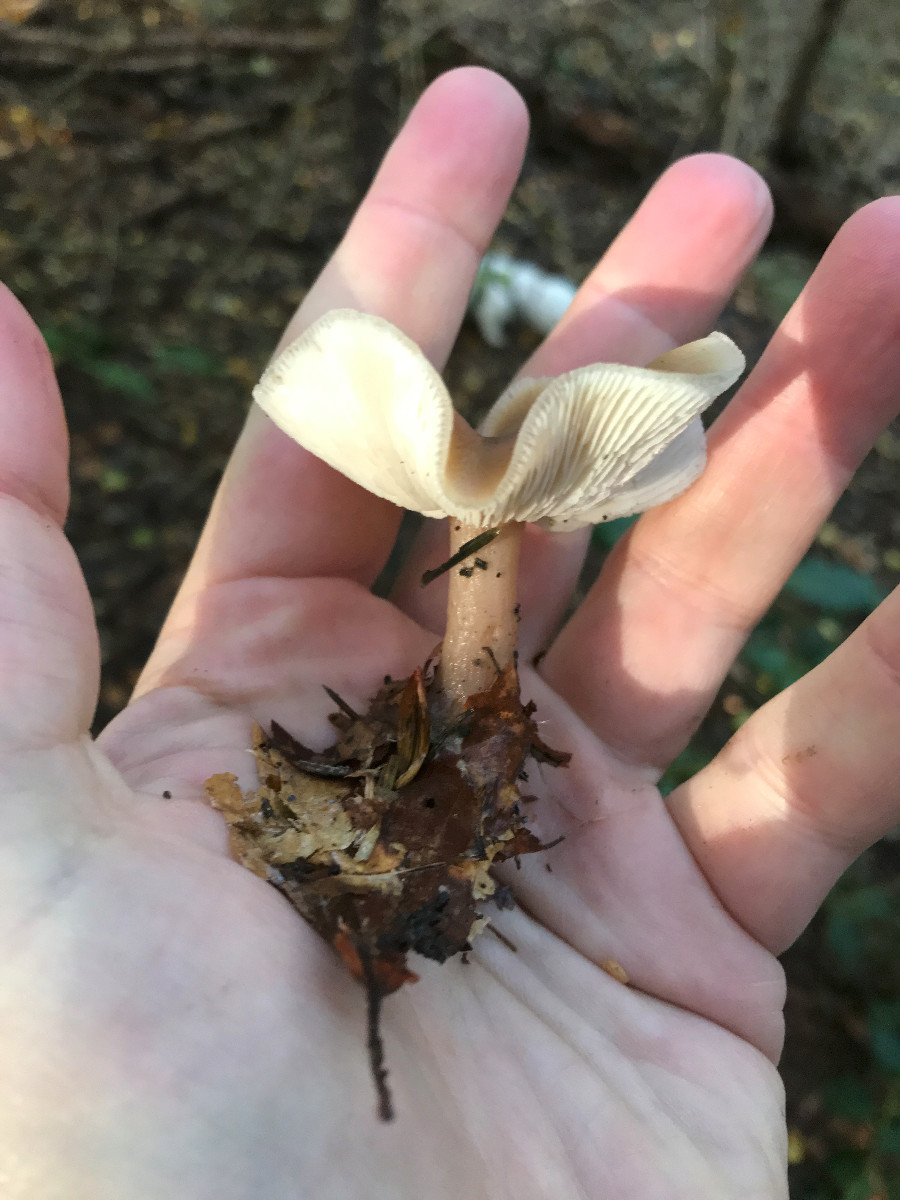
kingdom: Fungi
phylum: Basidiomycota
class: Agaricomycetes
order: Agaricales
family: Omphalotaceae
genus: Rhodocollybia
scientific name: Rhodocollybia asema
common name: horngrå fladhat
